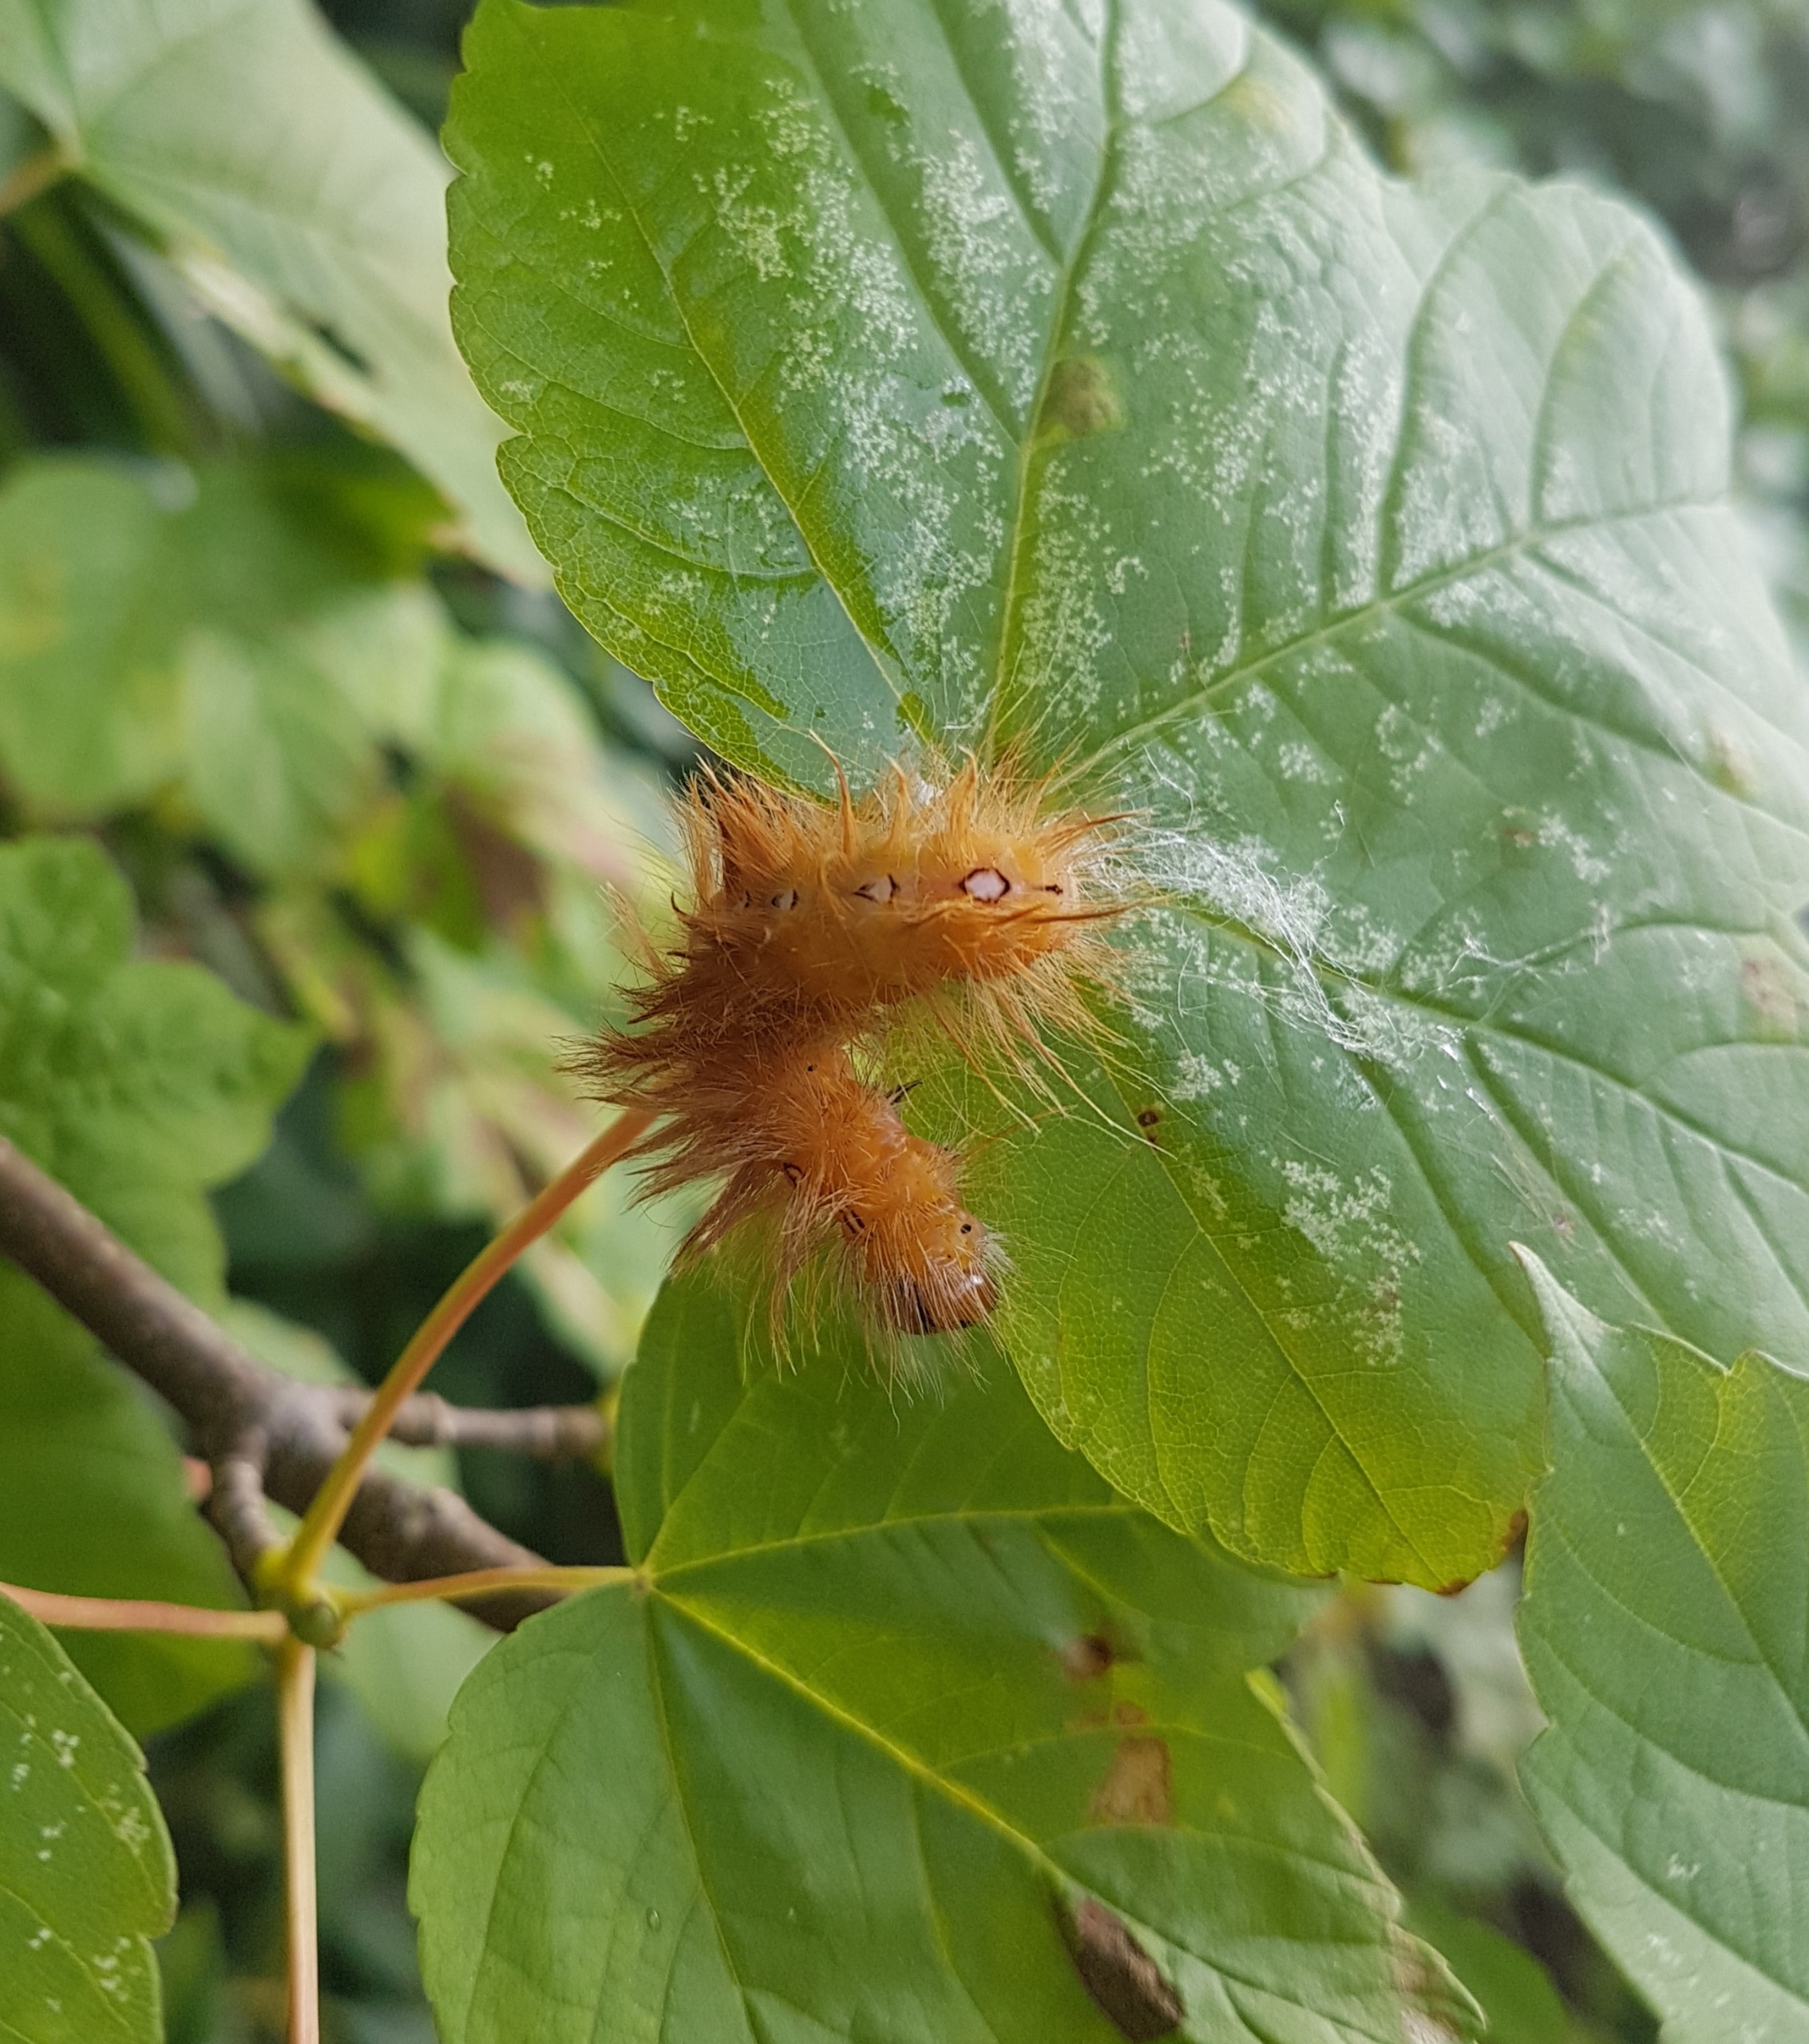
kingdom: Animalia
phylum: Arthropoda
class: Insecta
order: Lepidoptera
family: Noctuidae
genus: Acronicta
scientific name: Acronicta aceris
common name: Ahornugle
